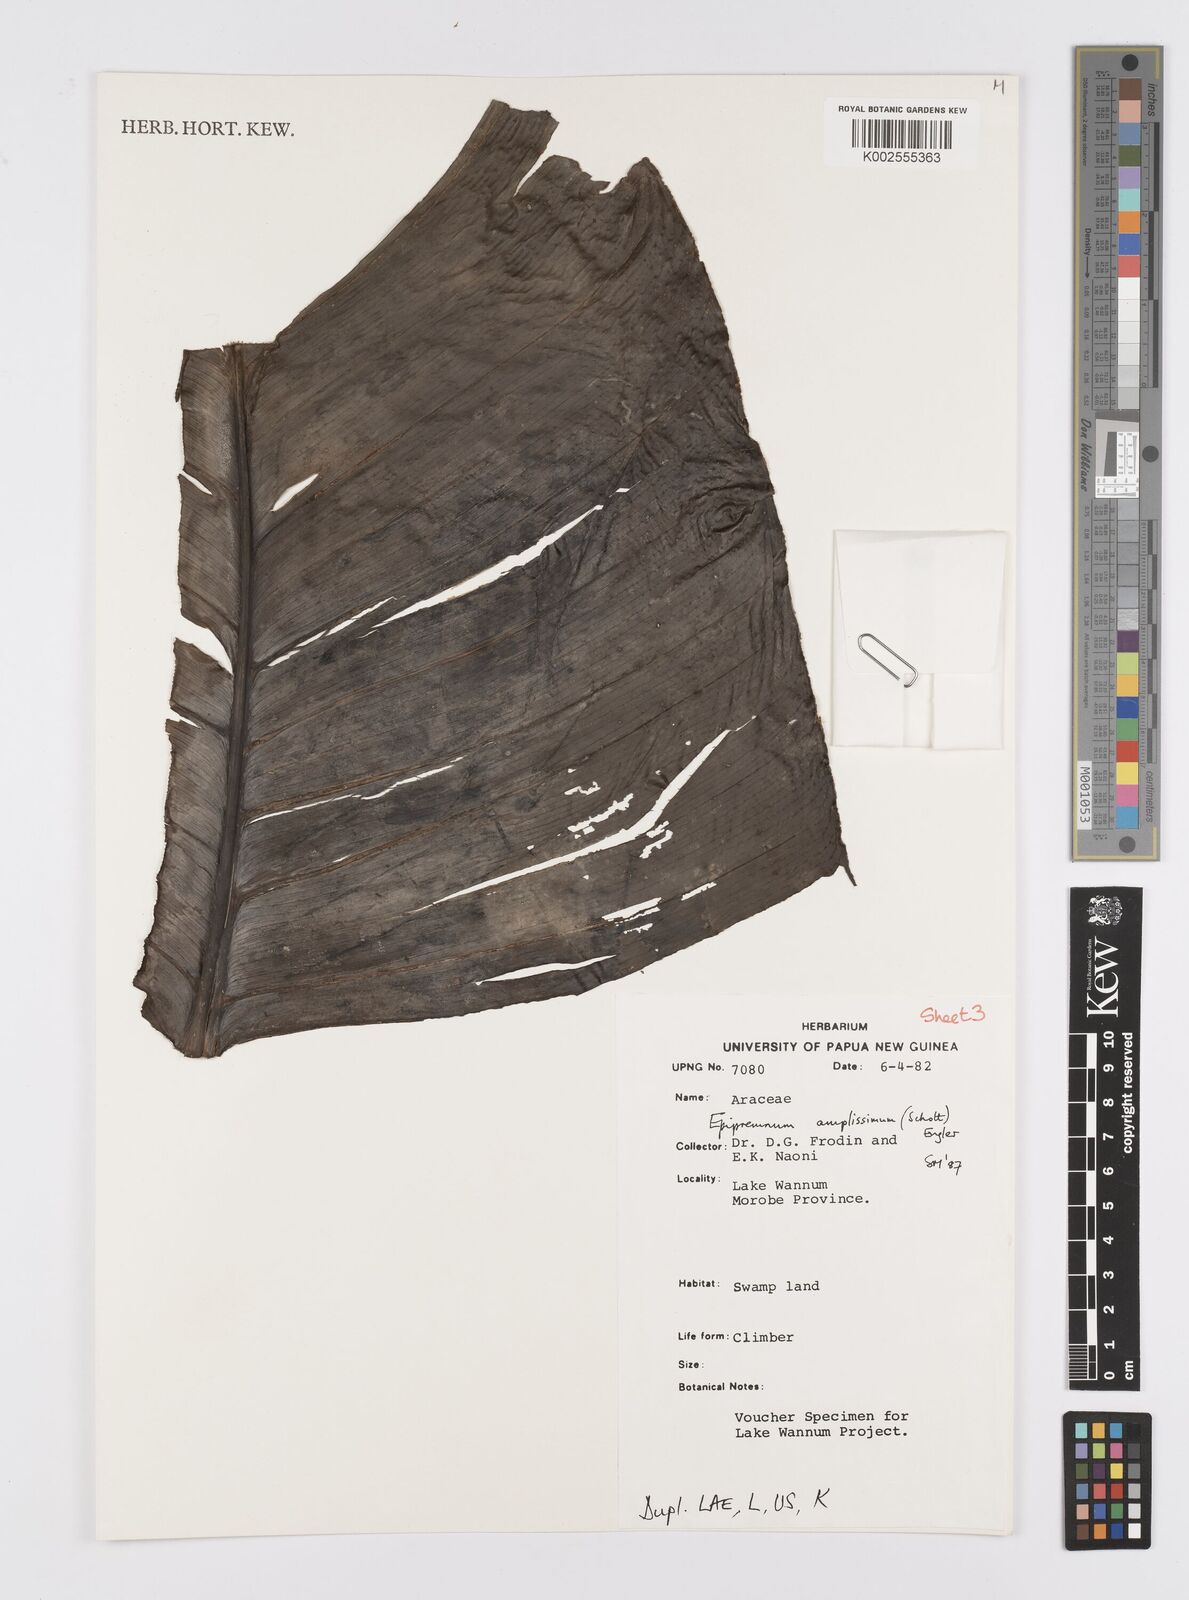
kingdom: Plantae
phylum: Tracheophyta
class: Liliopsida
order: Alismatales
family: Araceae
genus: Epipremnum
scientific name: Epipremnum amplissimum
